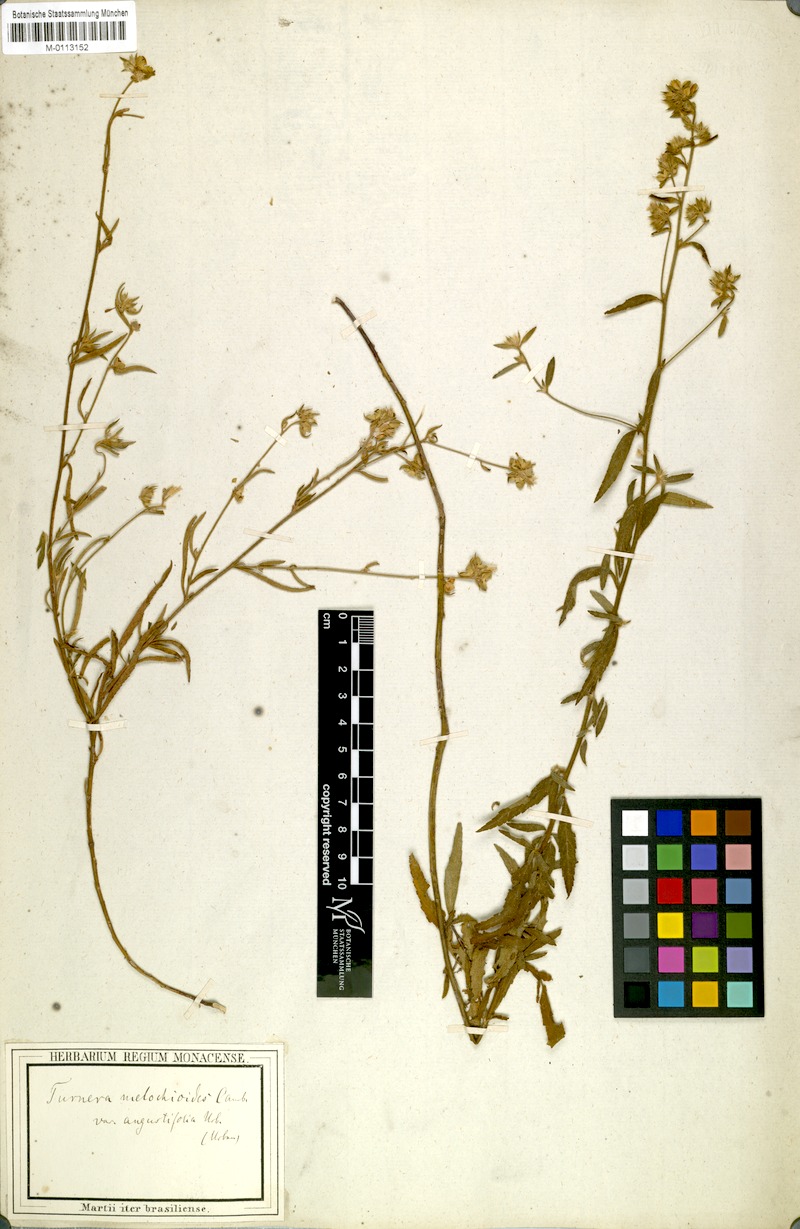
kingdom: Plantae
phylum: Tracheophyta
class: Magnoliopsida
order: Malpighiales
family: Turneraceae
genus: Turnera
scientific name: Turnera arenaria
